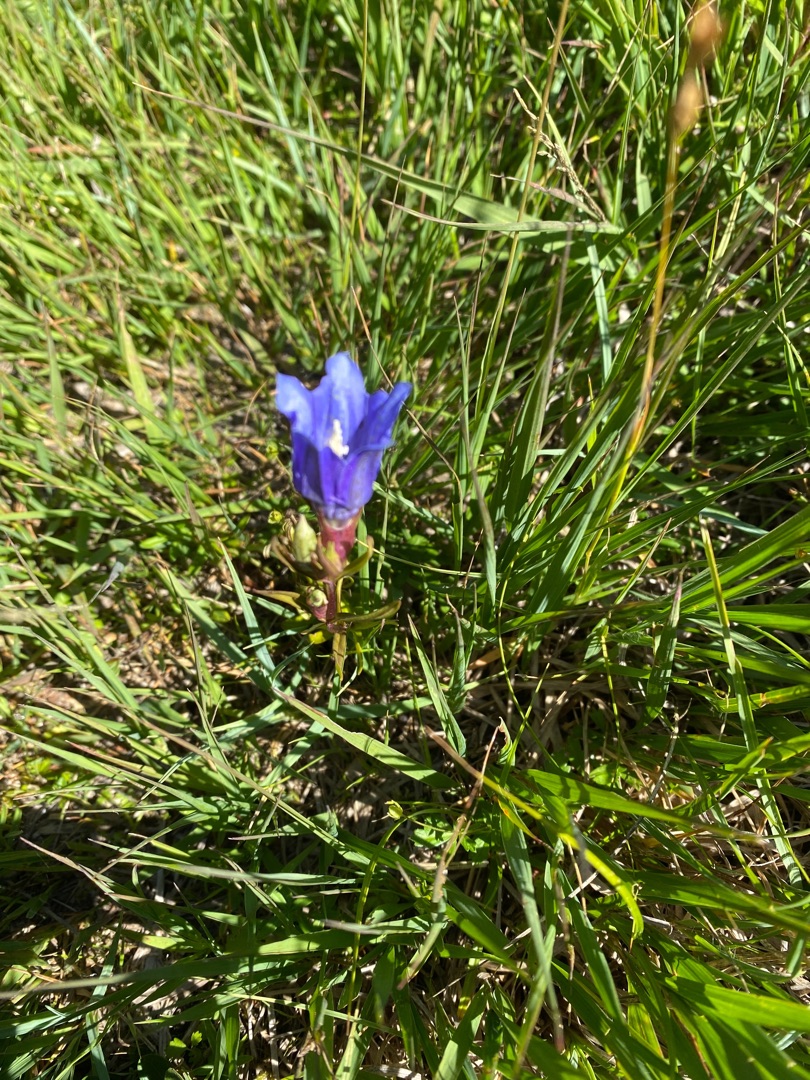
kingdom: Plantae
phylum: Tracheophyta
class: Magnoliopsida
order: Gentianales
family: Gentianaceae
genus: Gentiana
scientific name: Gentiana pneumonanthe
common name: Klokke-ensian
